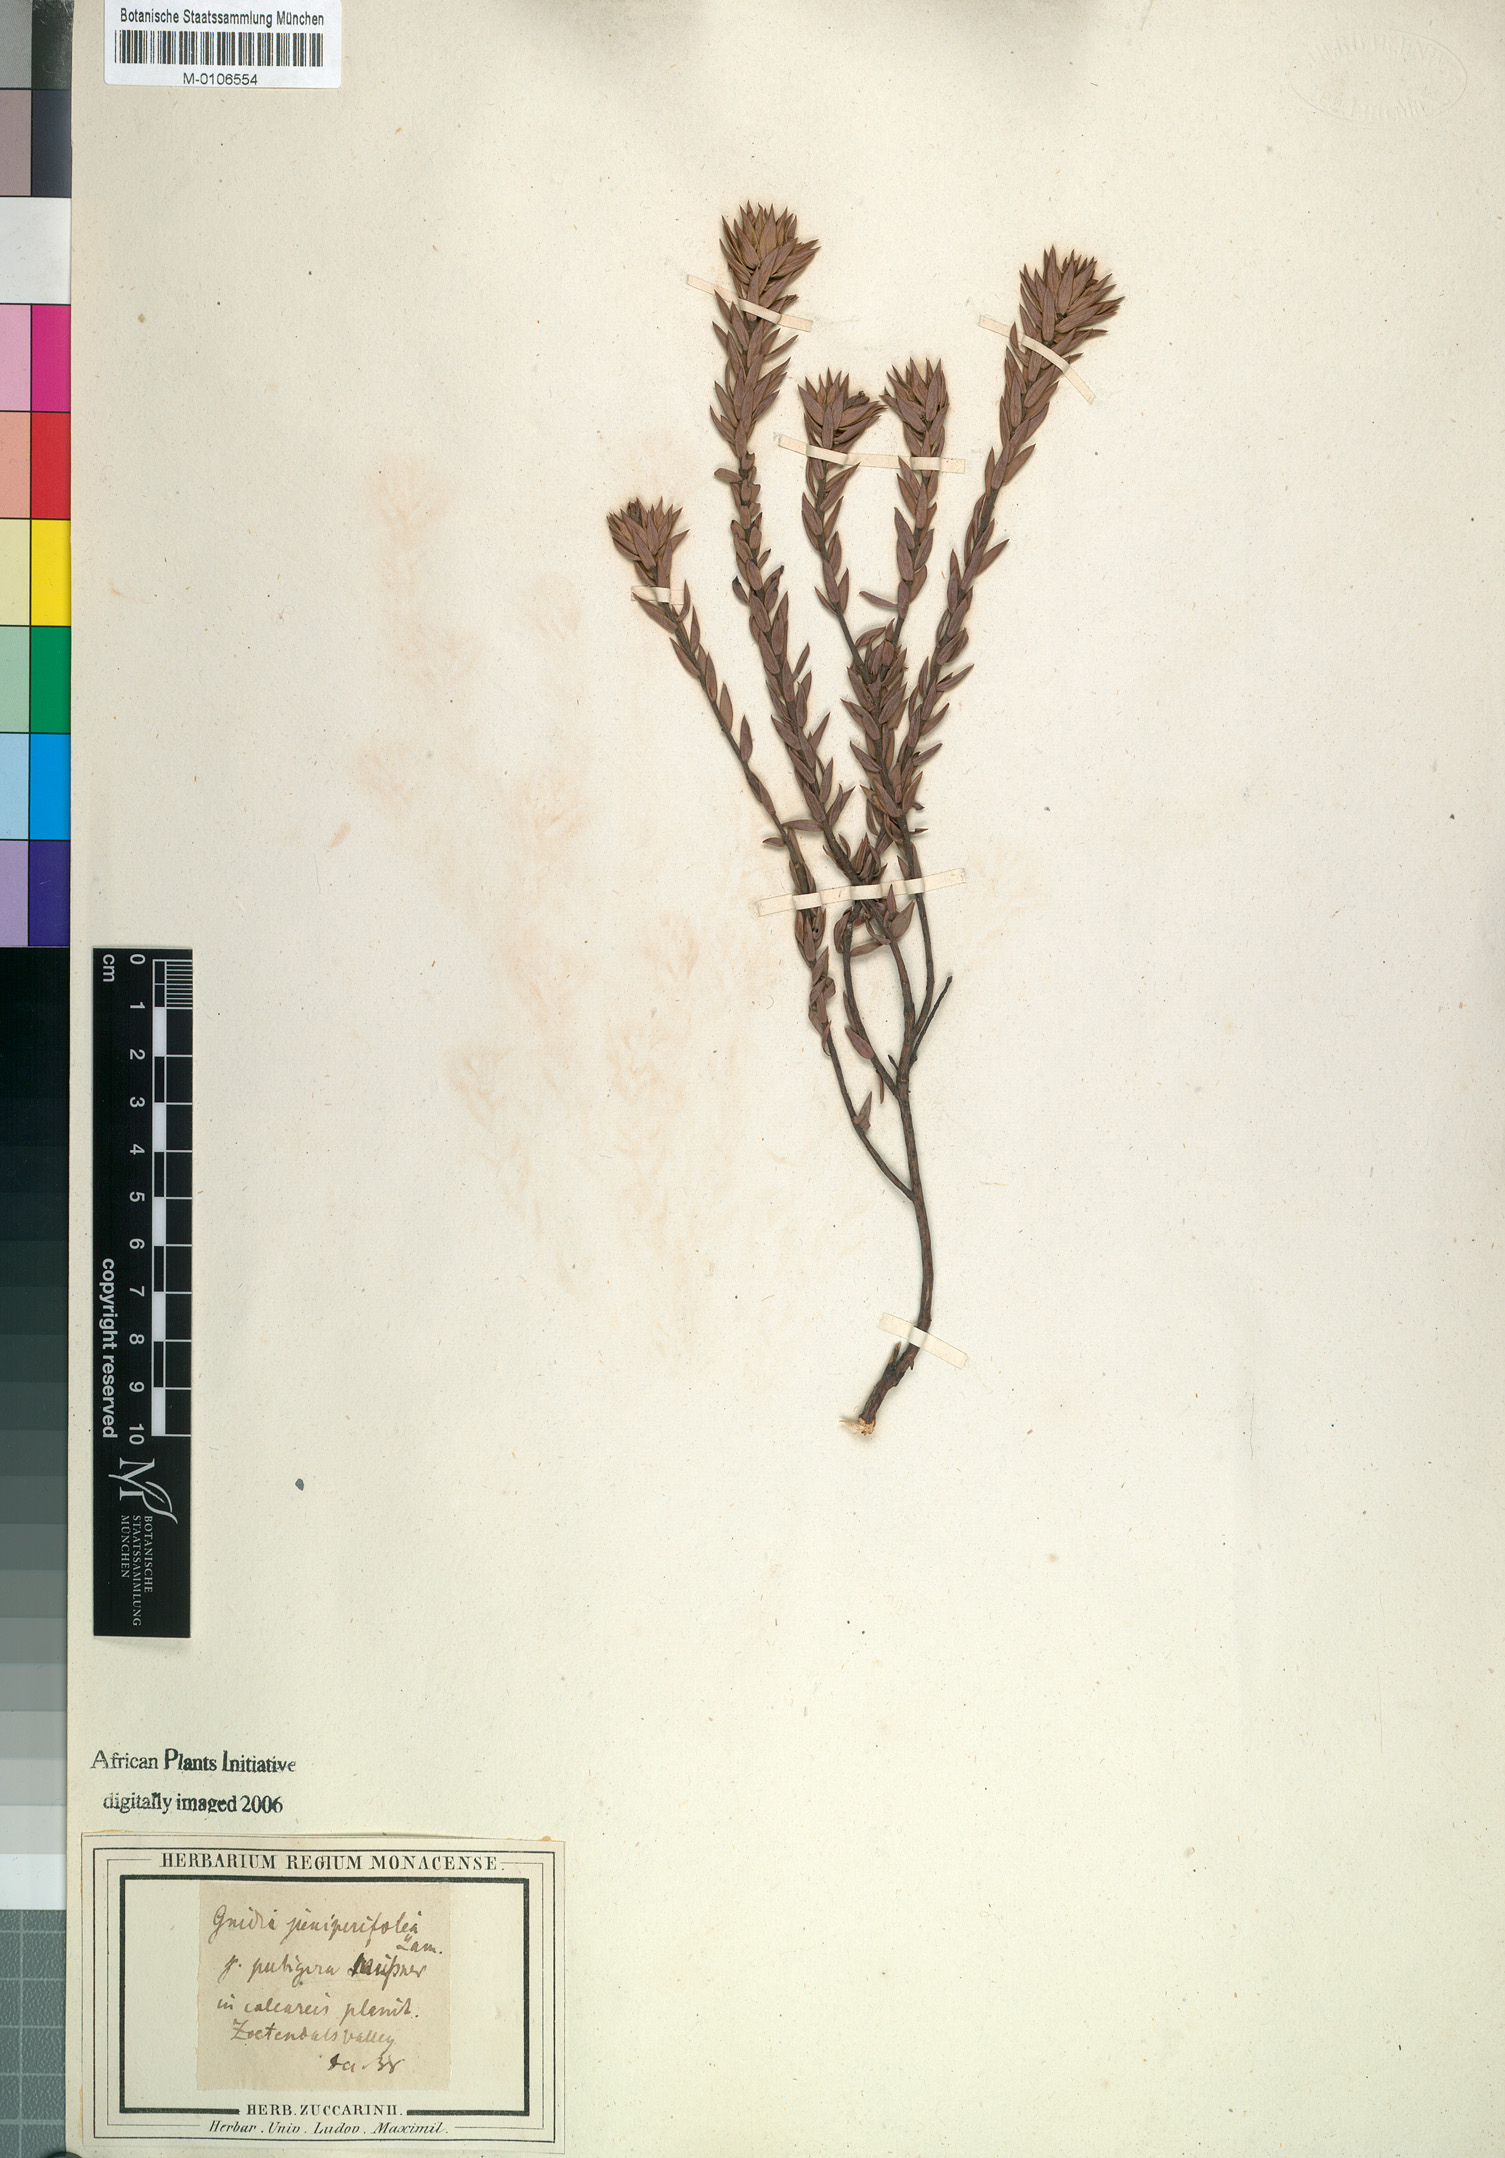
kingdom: Plantae
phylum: Tracheophyta
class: Magnoliopsida
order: Malvales
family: Thymelaeaceae
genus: Gnidia
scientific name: Gnidia juniperifolia
